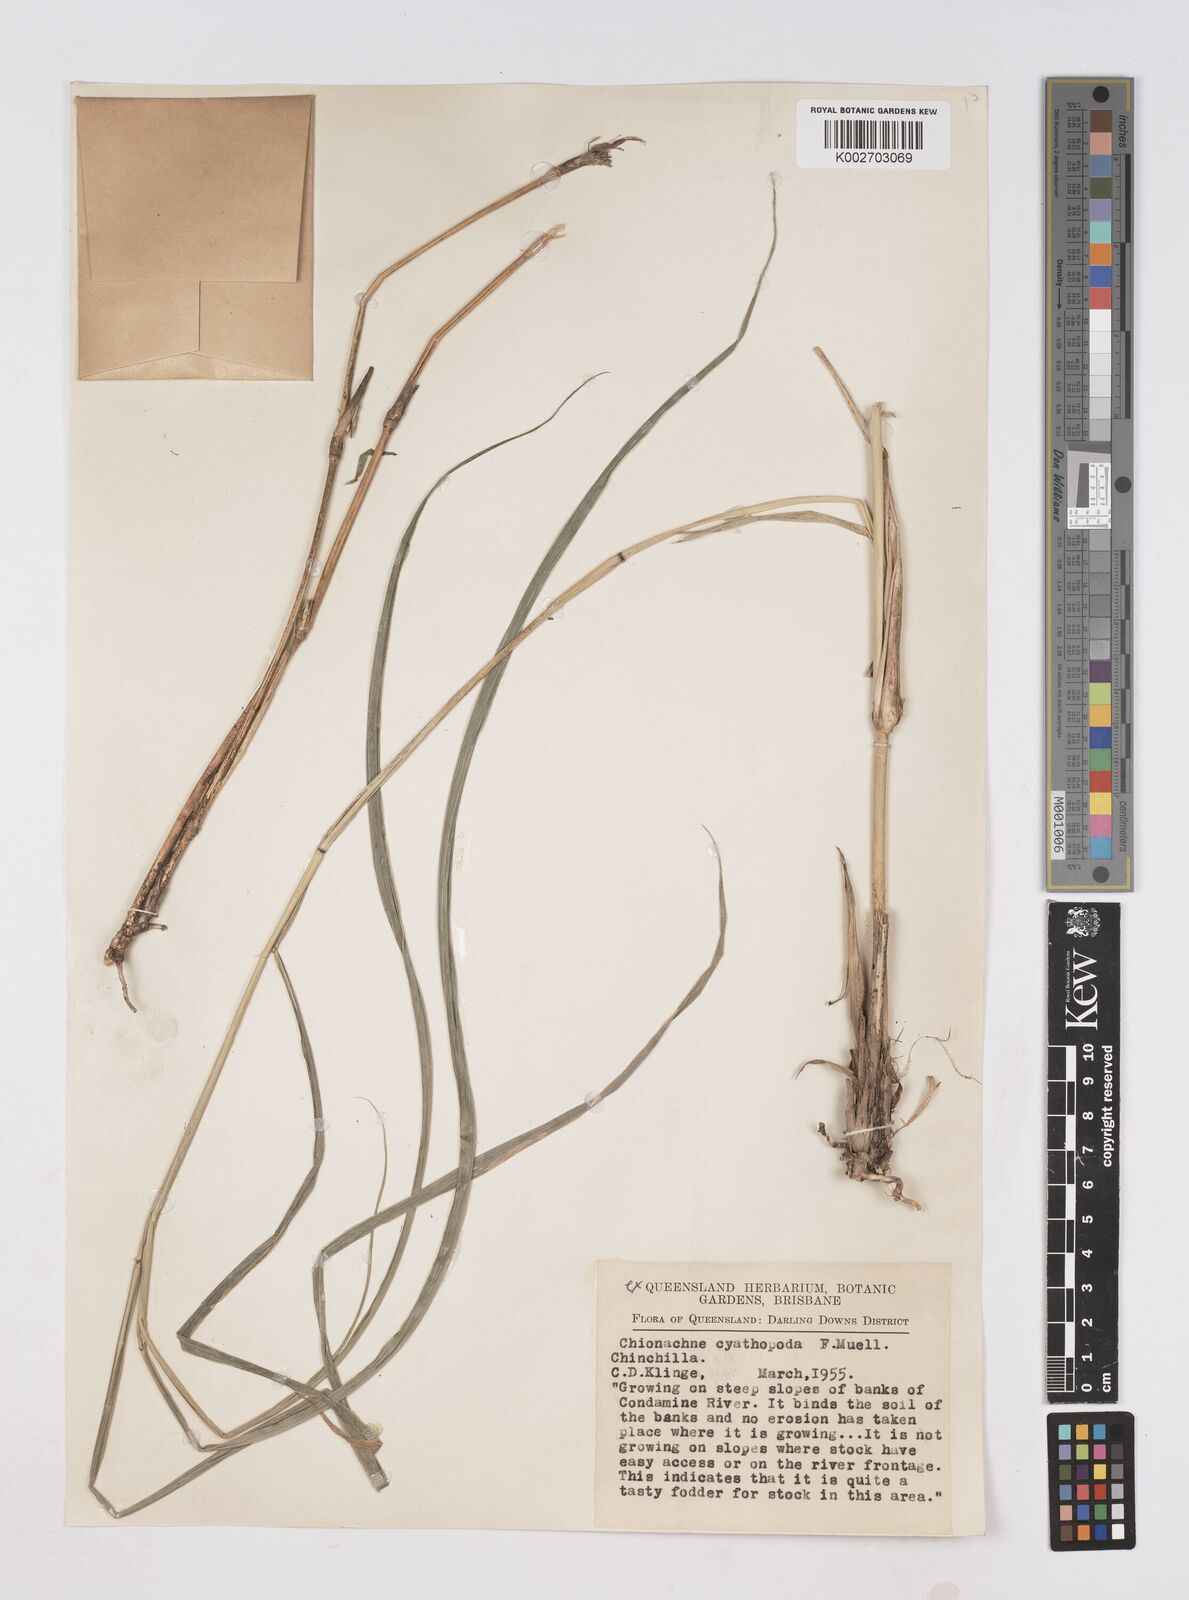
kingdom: Plantae
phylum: Tracheophyta
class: Liliopsida
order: Poales
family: Poaceae
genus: Polytoca
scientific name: Polytoca cyathopoda
